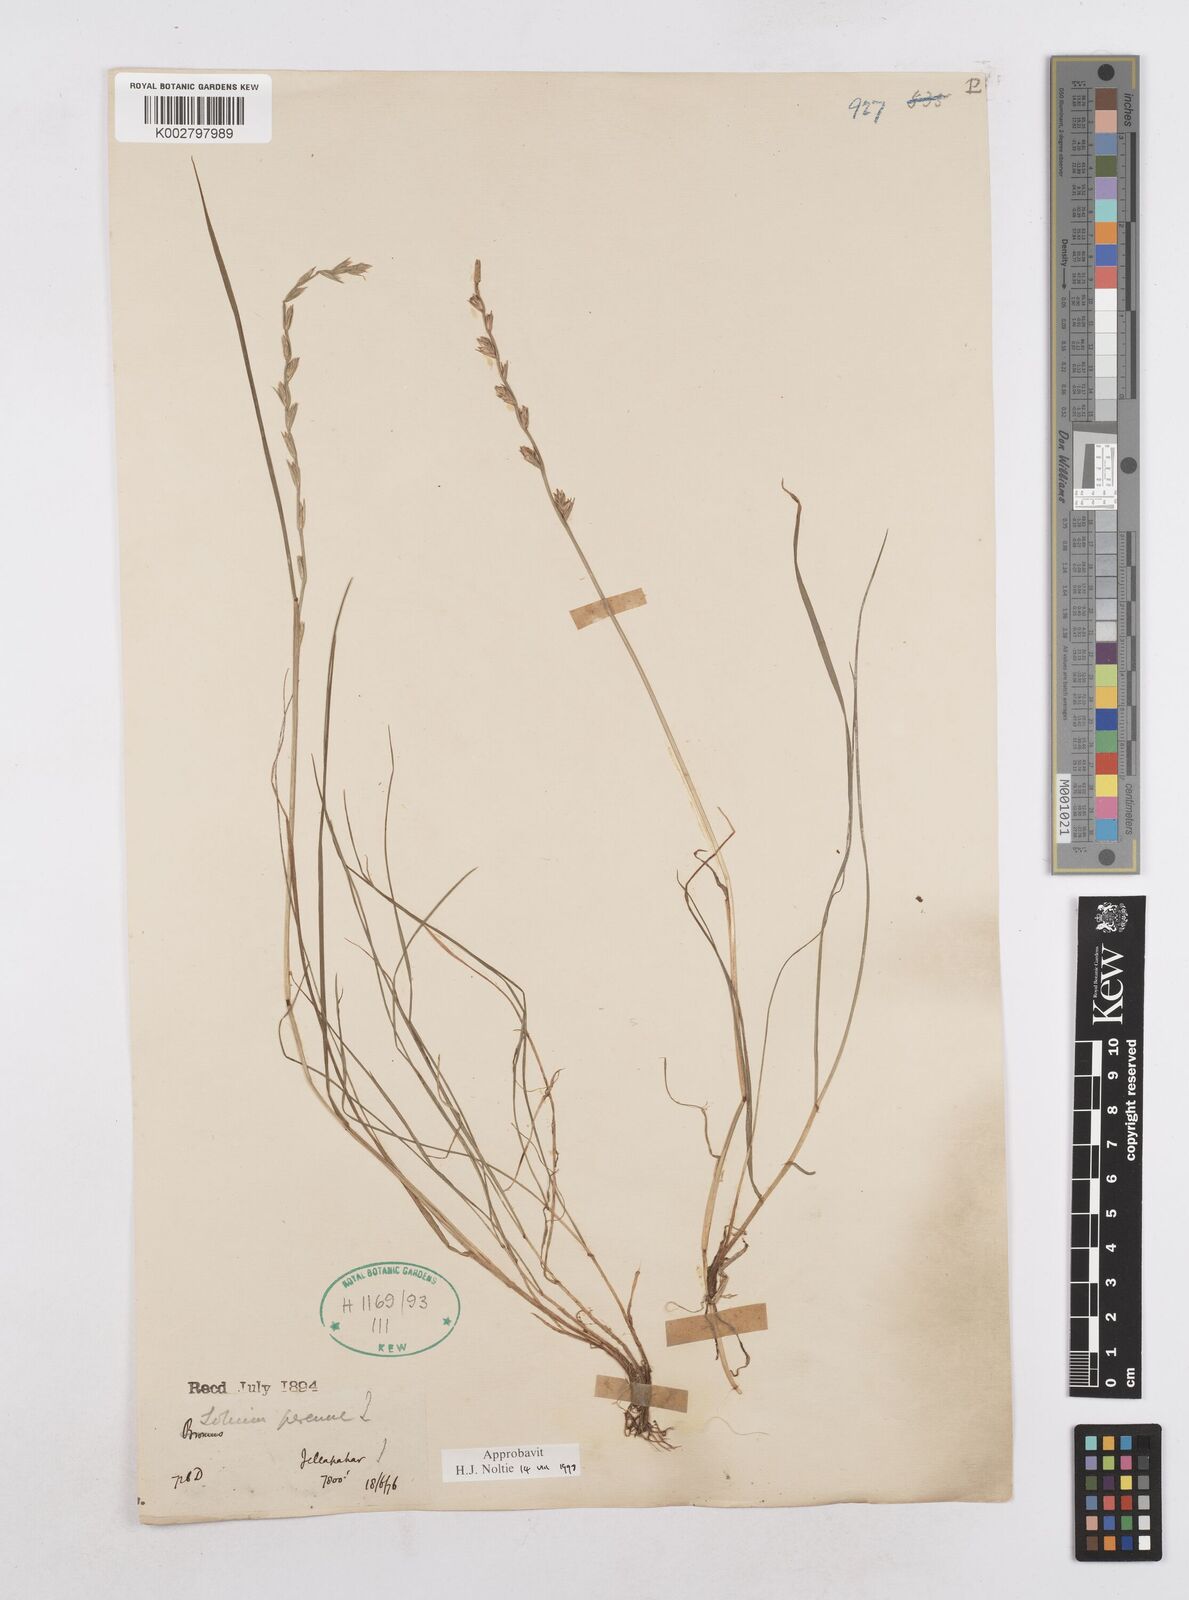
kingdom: Plantae
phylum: Tracheophyta
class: Liliopsida
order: Poales
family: Poaceae
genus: Lolium
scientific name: Lolium perenne
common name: Perennial ryegrass
